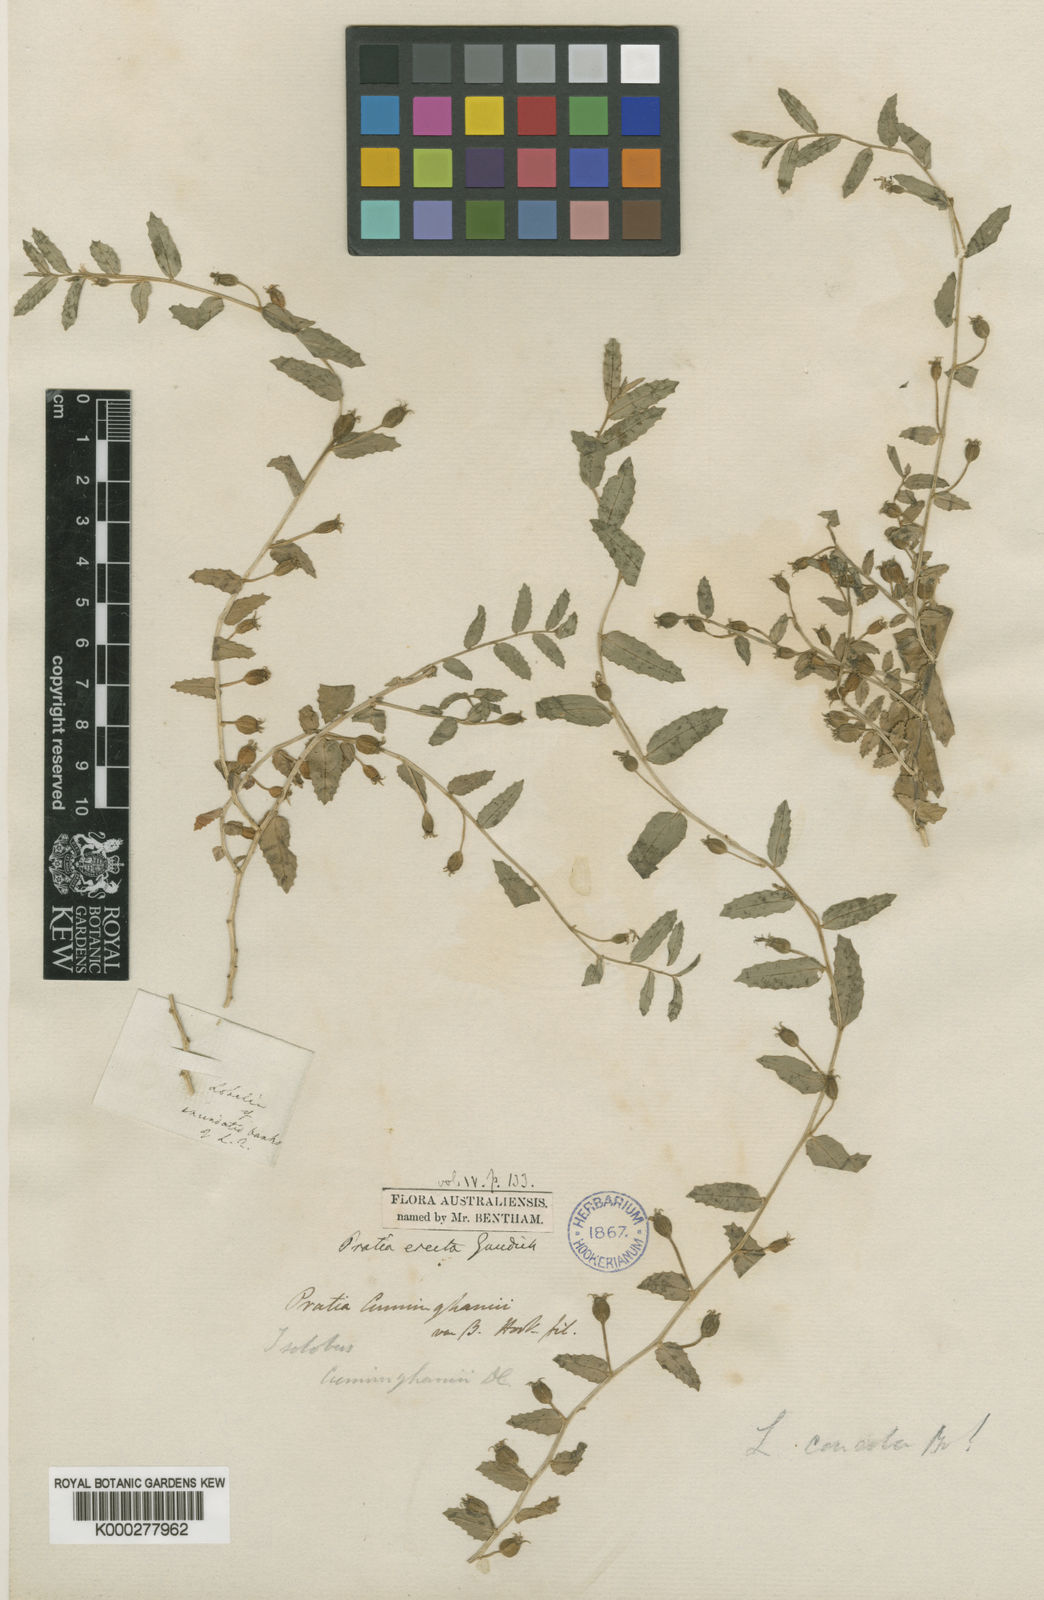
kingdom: Plantae
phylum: Tracheophyta
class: Magnoliopsida
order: Asterales
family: Campanulaceae
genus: Lobelia
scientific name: Lobelia concolor
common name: Poison pratia
